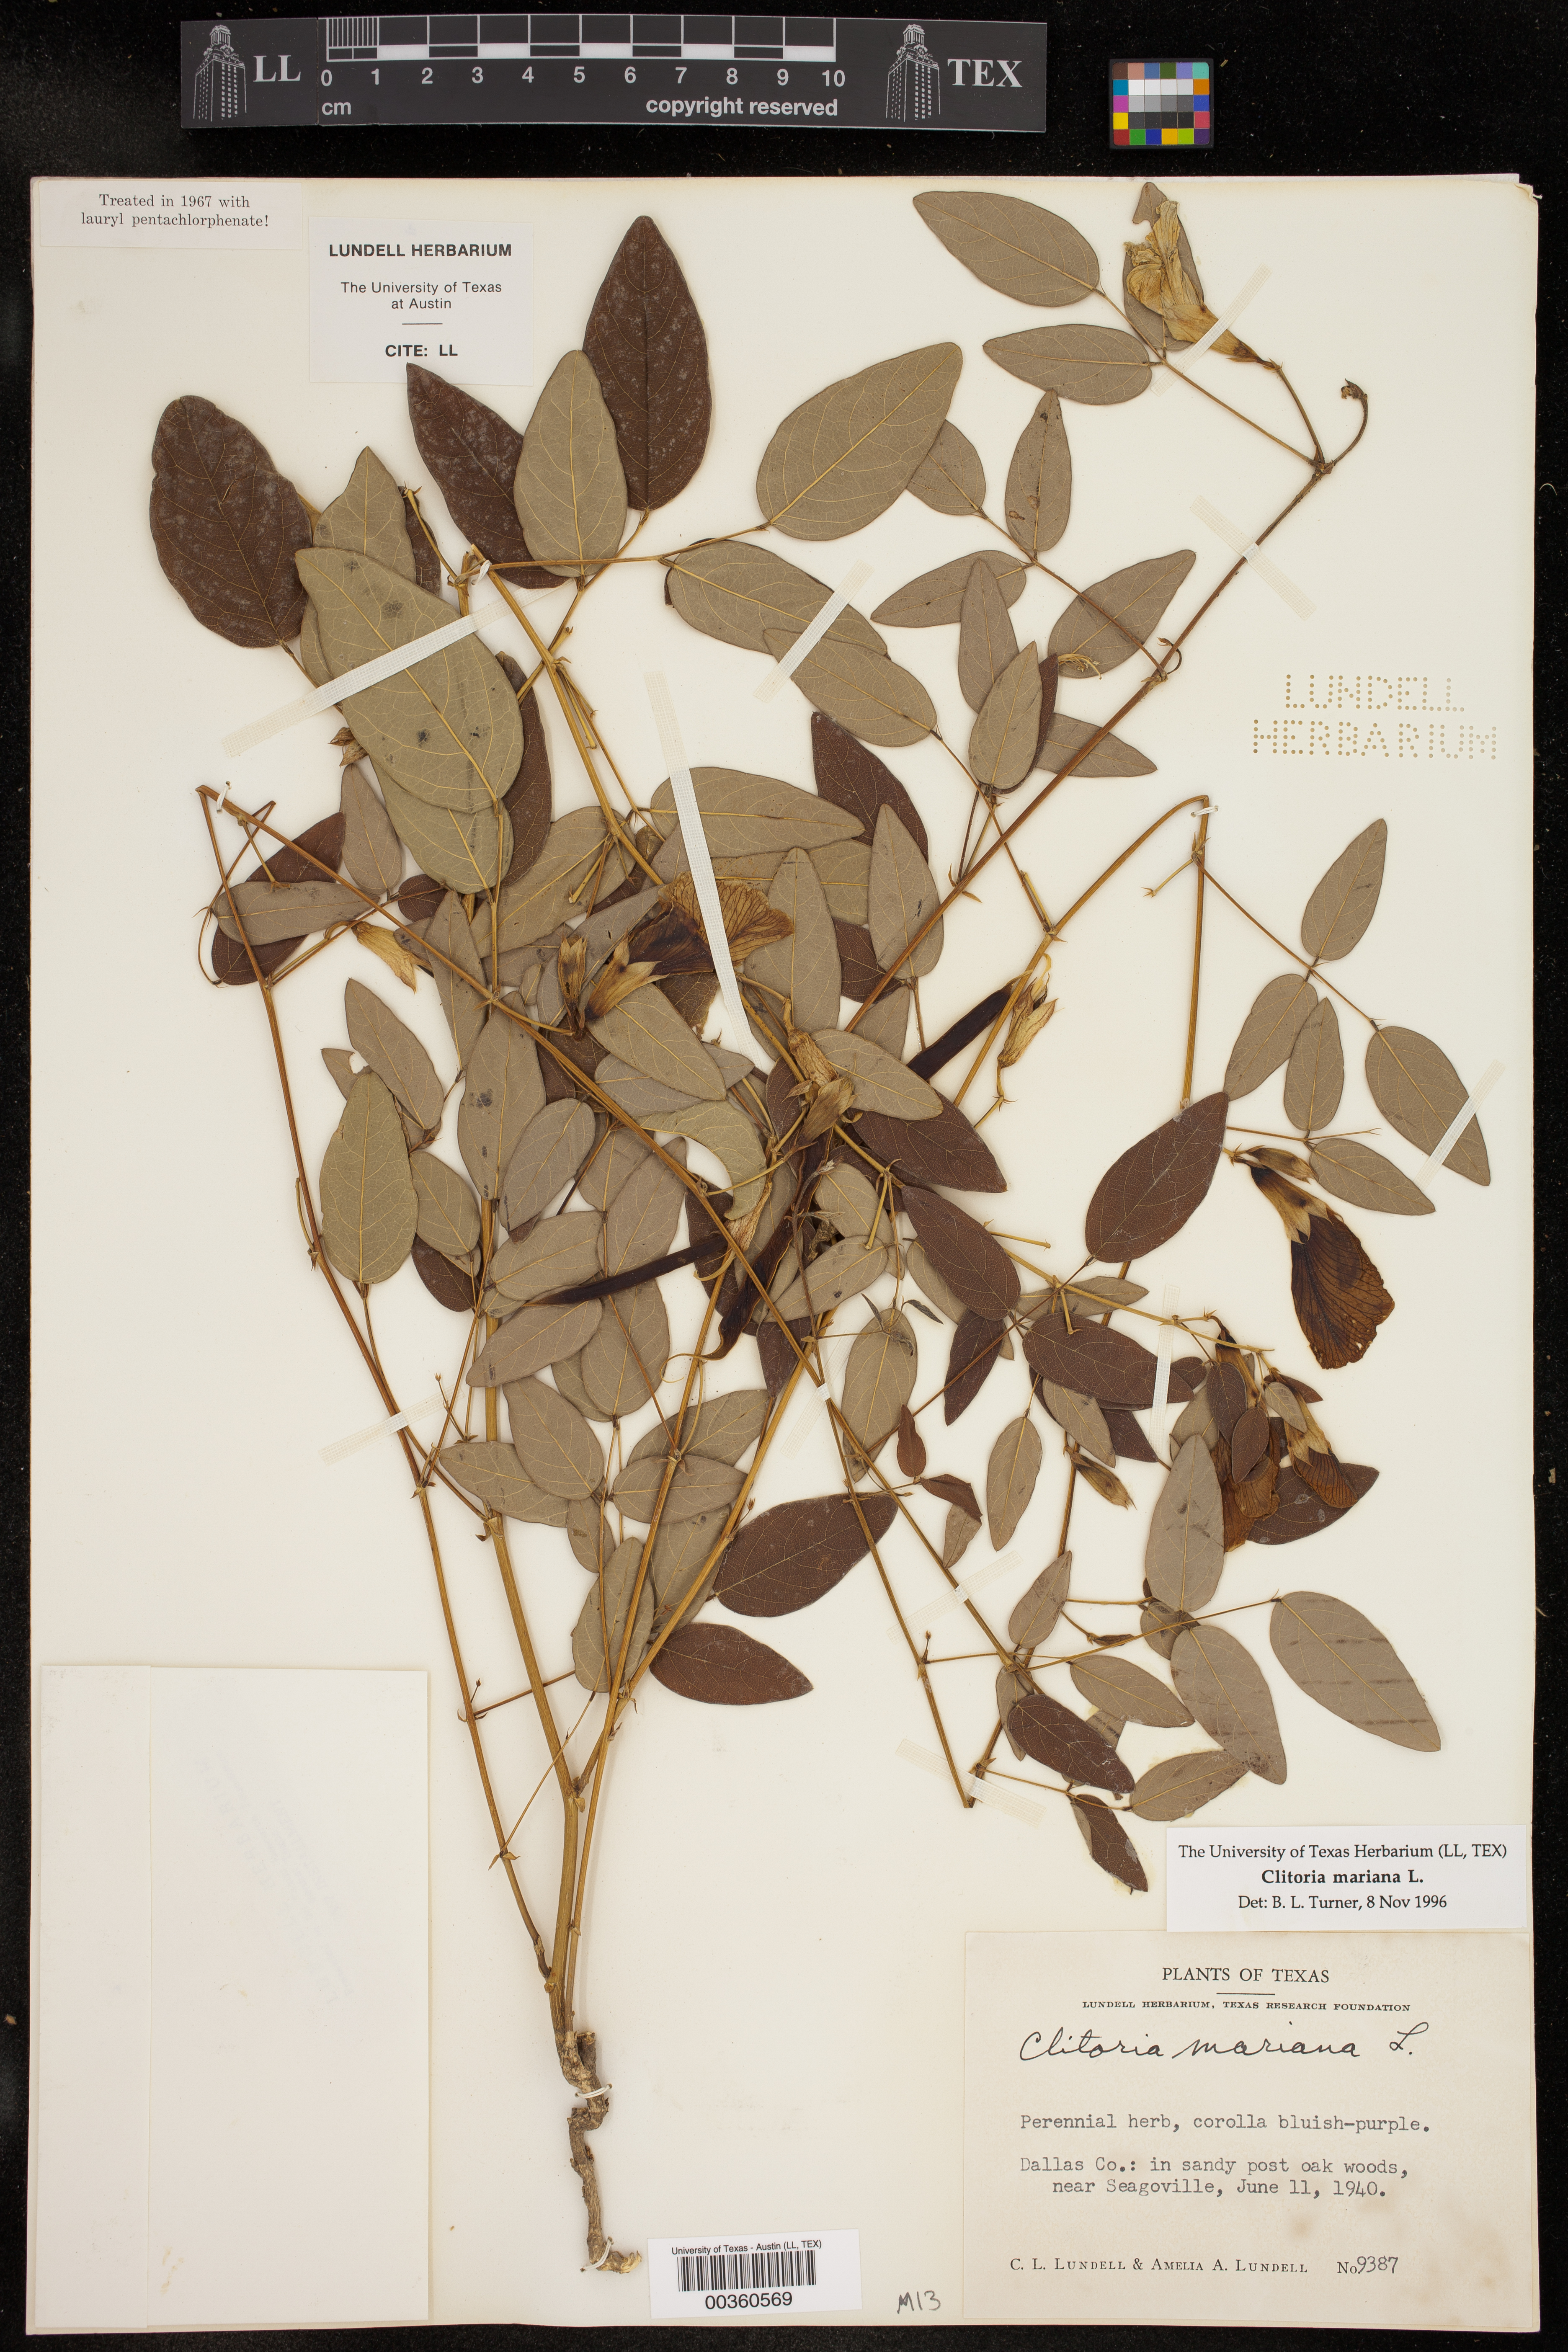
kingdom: Plantae
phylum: Tracheophyta
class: Magnoliopsida
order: Fabales
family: Fabaceae
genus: Clitoria
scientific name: Clitoria mariana
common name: Butterfly-pea
